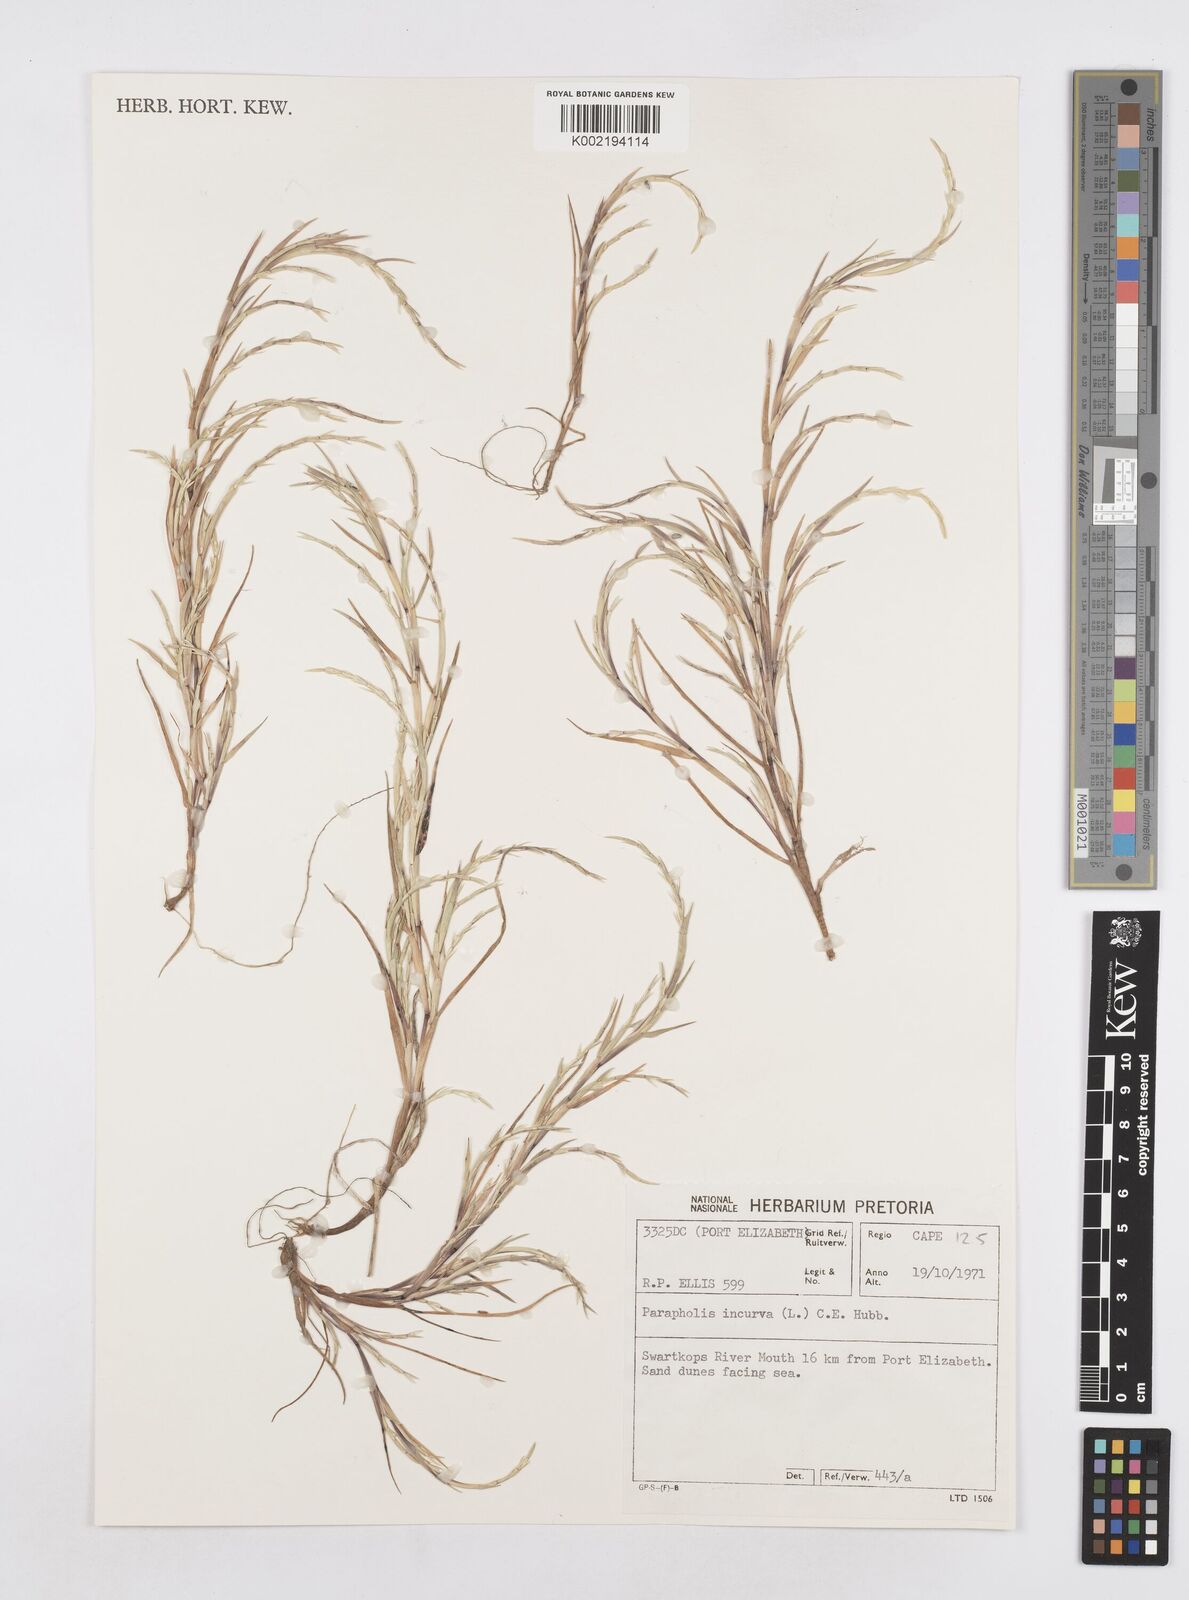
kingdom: Plantae
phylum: Tracheophyta
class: Liliopsida
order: Poales
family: Poaceae
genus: Parapholis
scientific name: Parapholis incurva
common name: Curved sicklegrass
